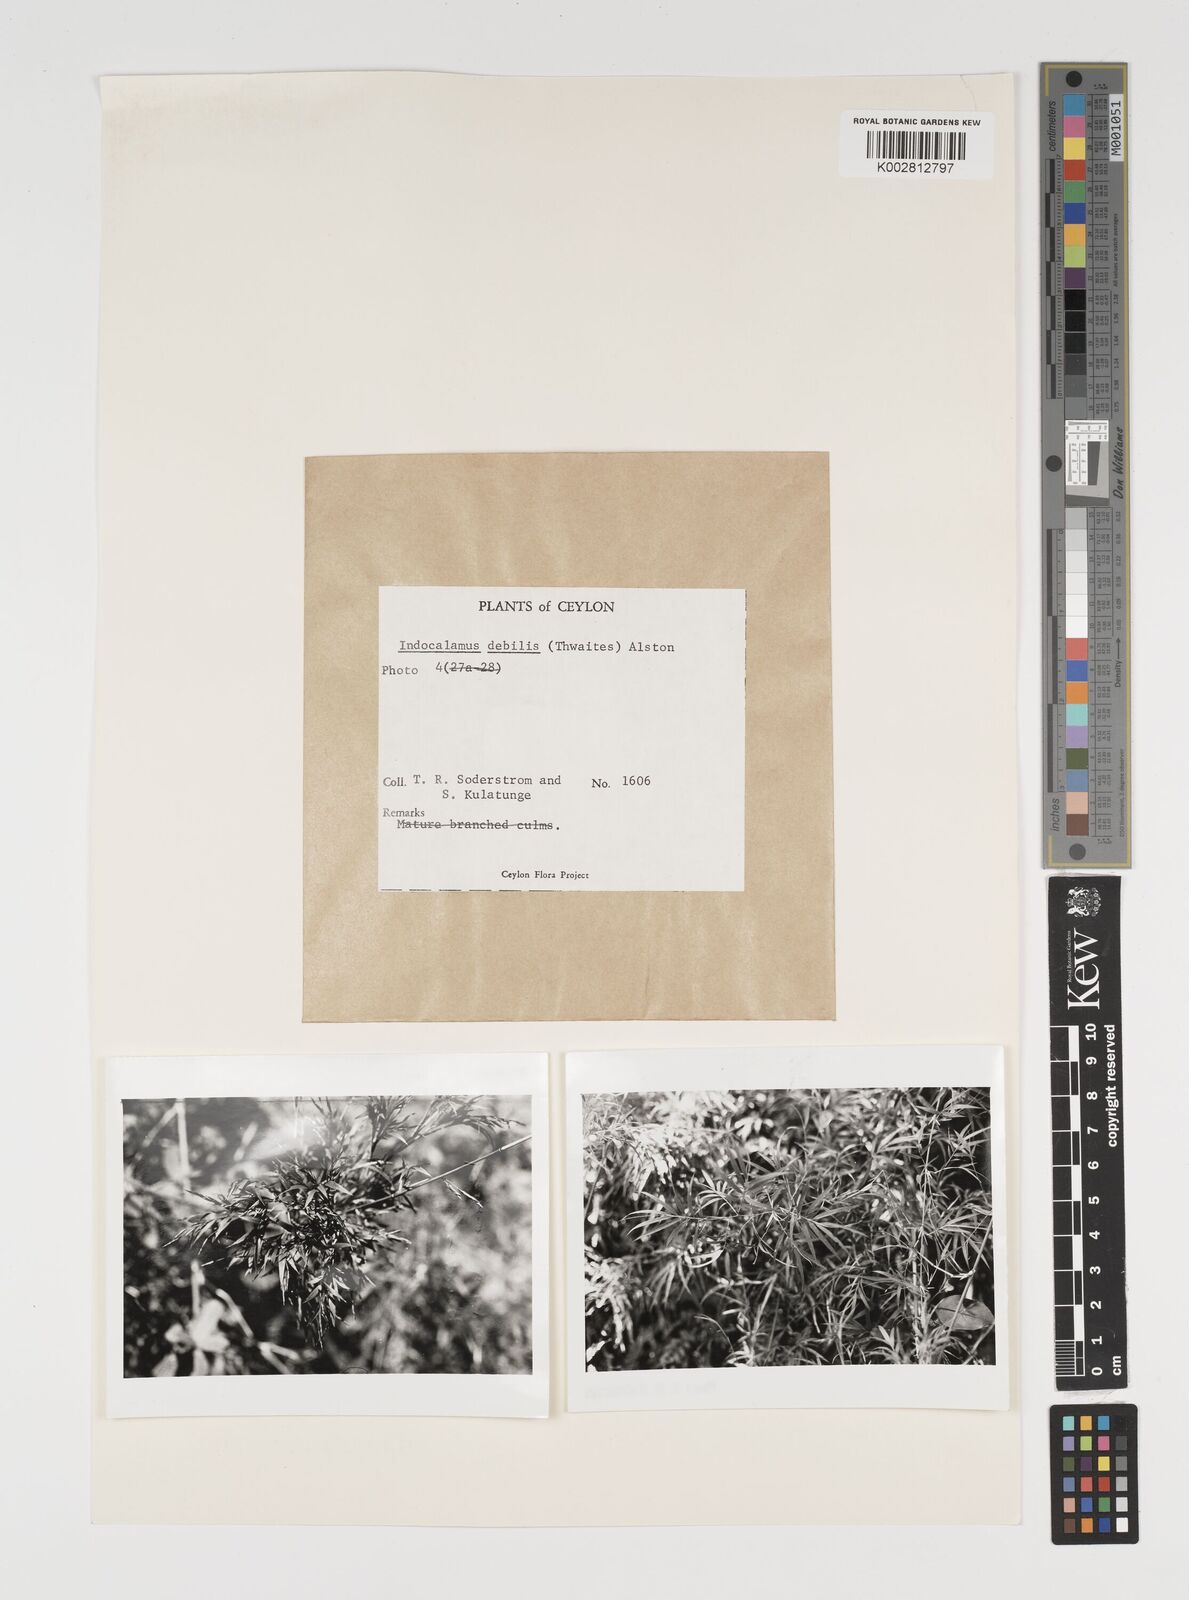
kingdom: Plantae
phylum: Tracheophyta
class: Liliopsida
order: Poales
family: Poaceae
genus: Kuruna
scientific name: Kuruna debilis
